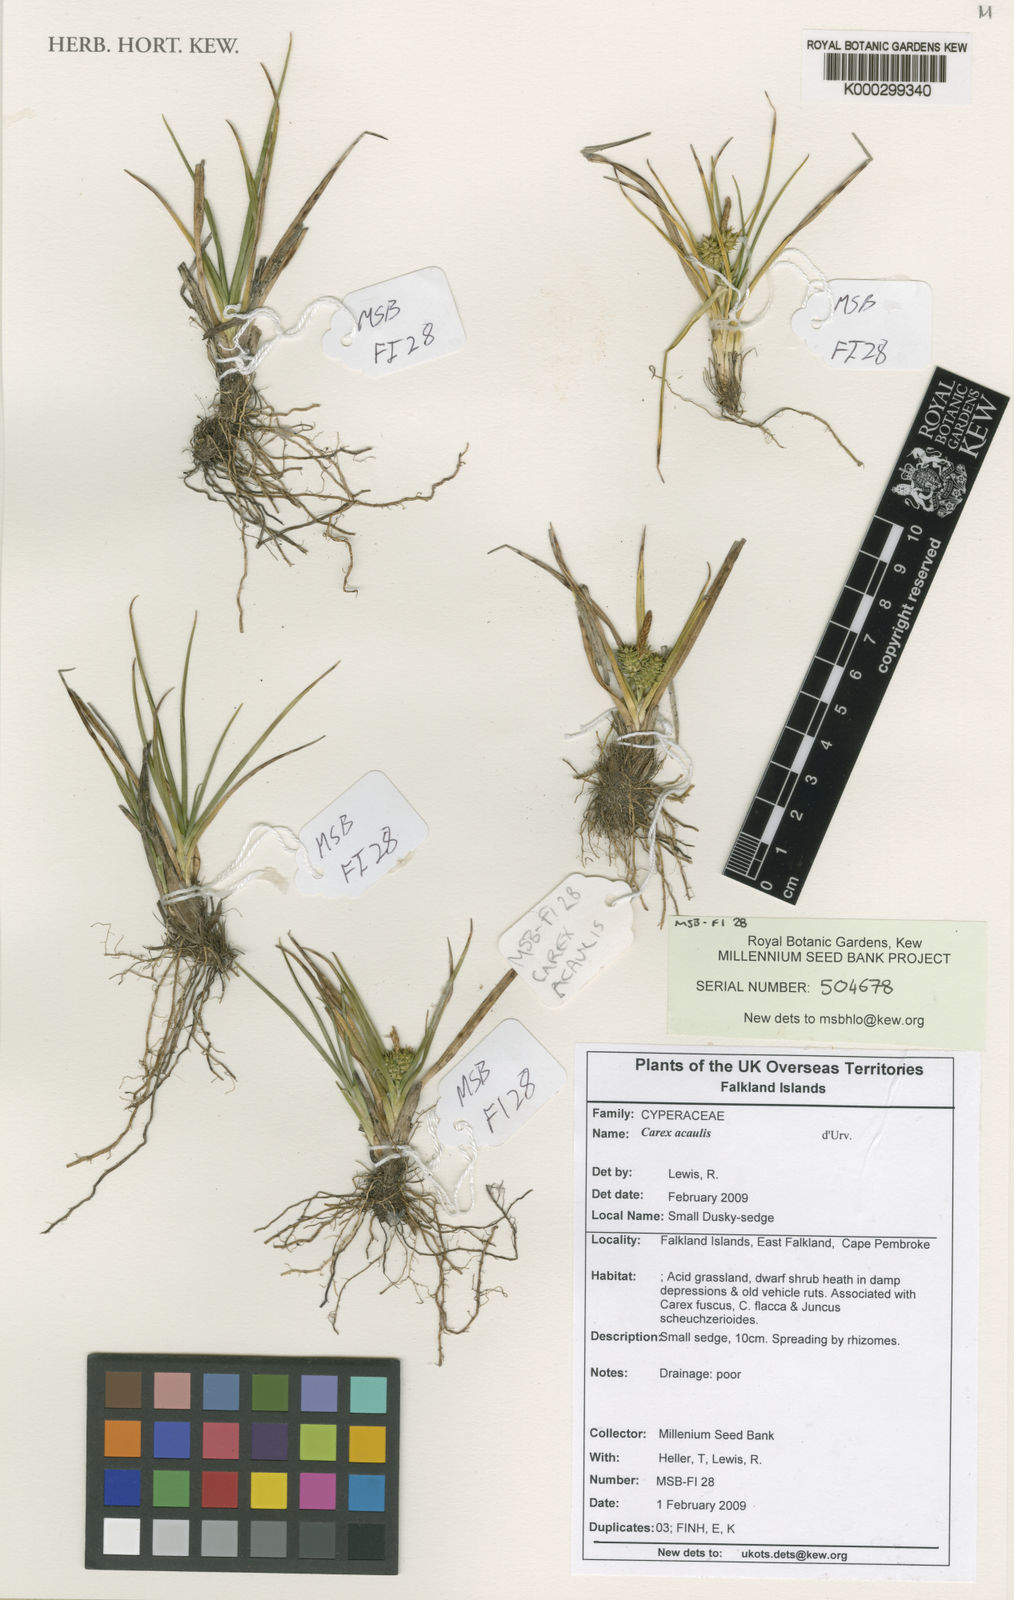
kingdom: Plantae
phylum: Tracheophyta
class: Liliopsida
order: Poales
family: Cyperaceae
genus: Carex
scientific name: Carex fuscula
